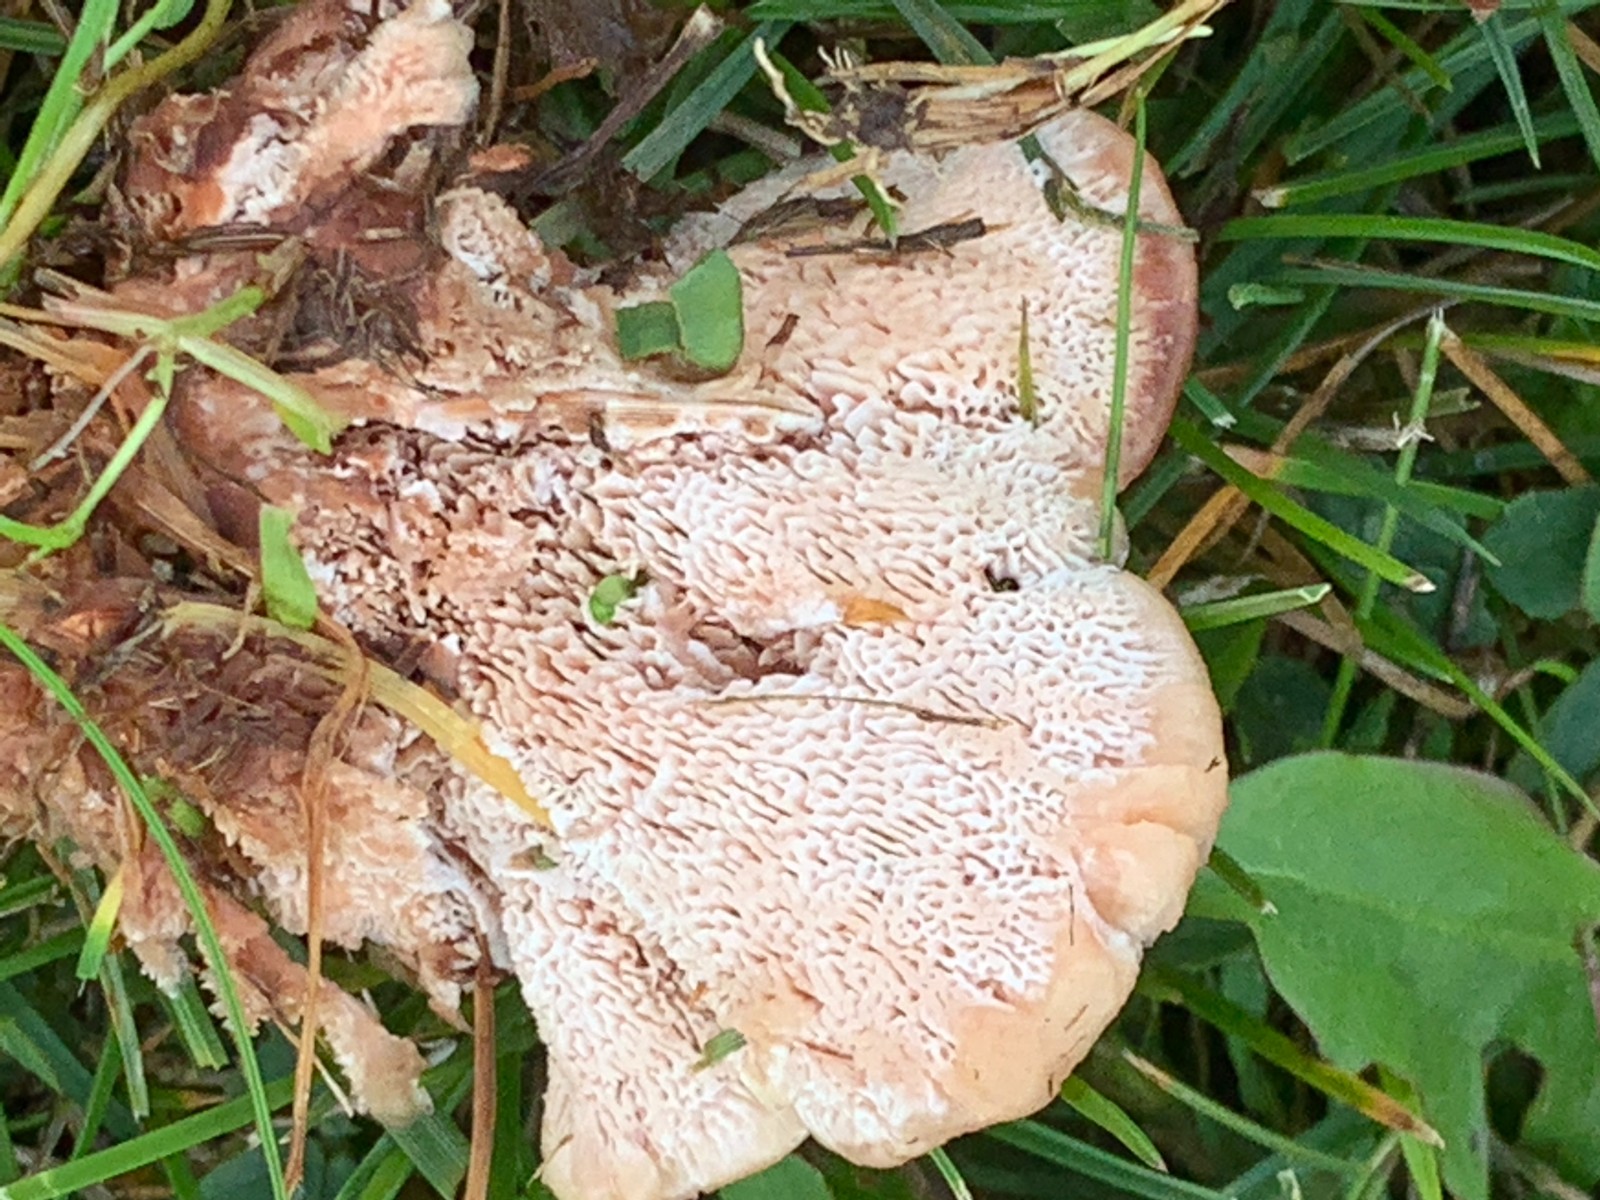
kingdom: Fungi
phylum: Basidiomycota
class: Agaricomycetes
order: Polyporales
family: Podoscyphaceae
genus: Abortiporus
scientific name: Abortiporus biennis
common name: rødmende pjalteporesvamp
